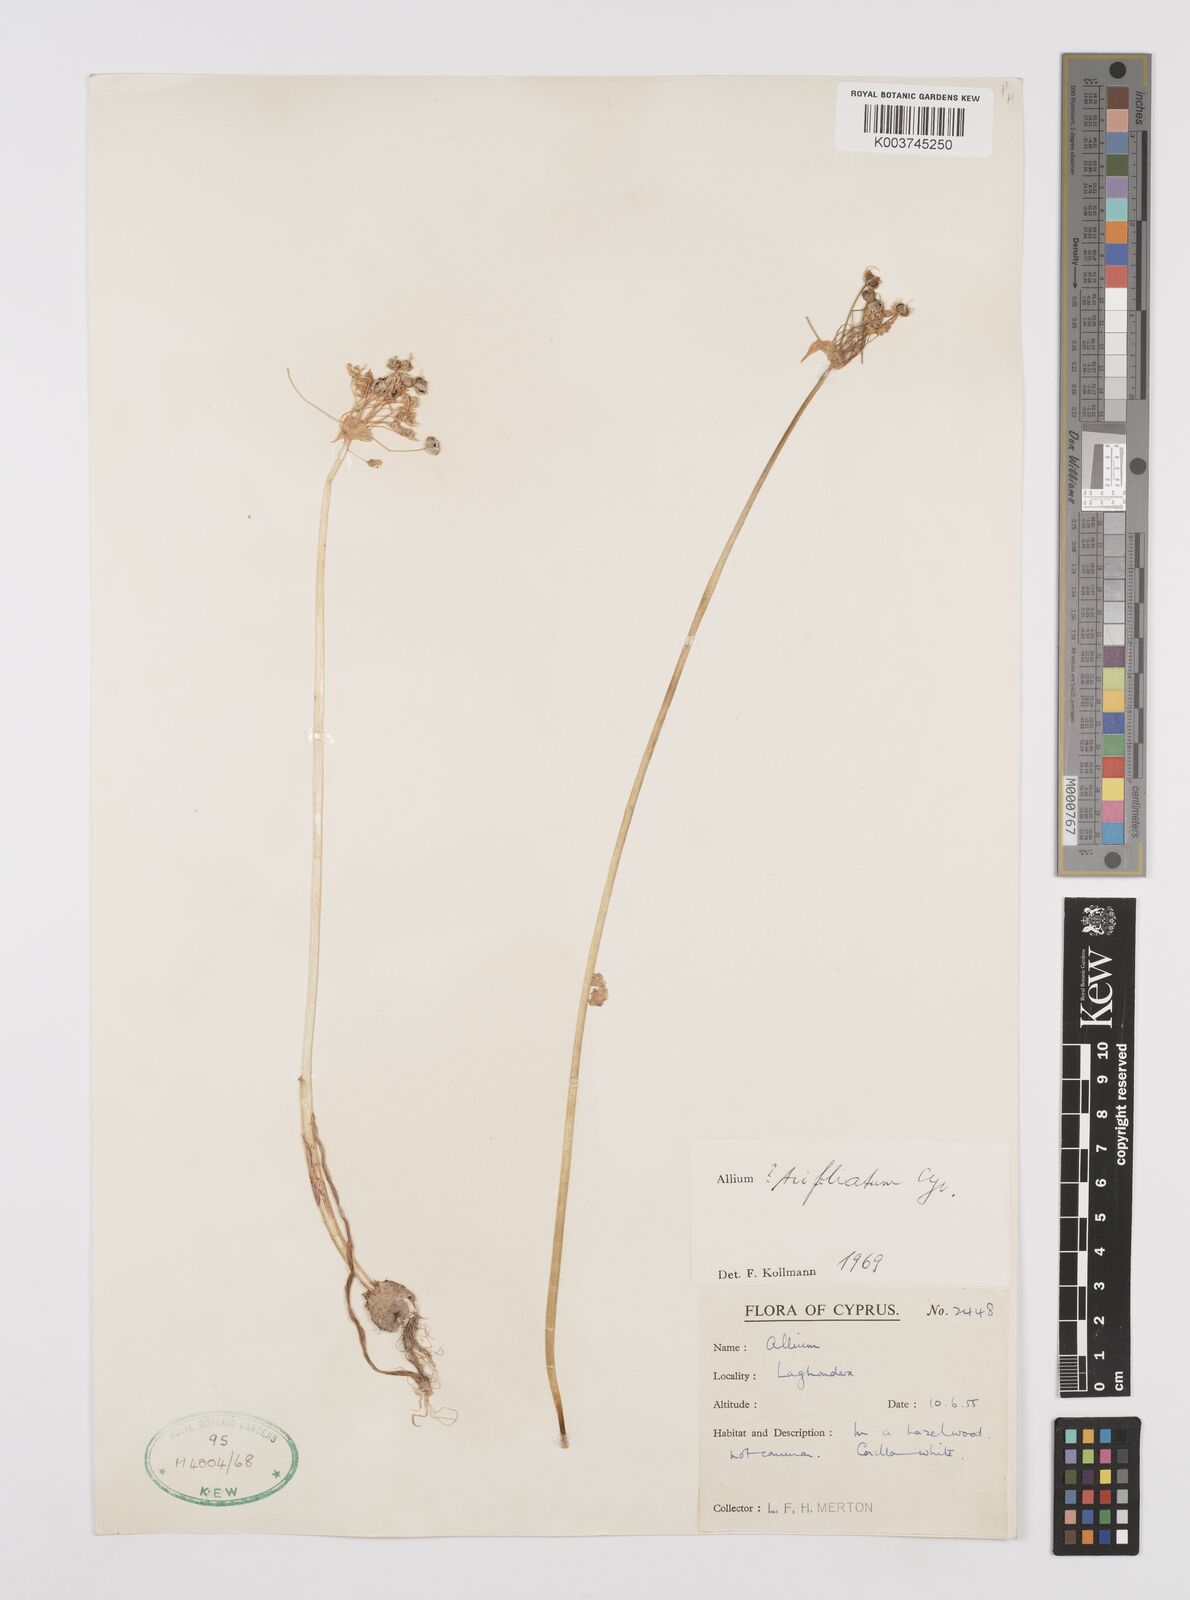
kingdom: Plantae
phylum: Tracheophyta
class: Liliopsida
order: Asparagales
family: Amaryllidaceae
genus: Allium
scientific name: Allium trifoliatum
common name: Pink garlic
